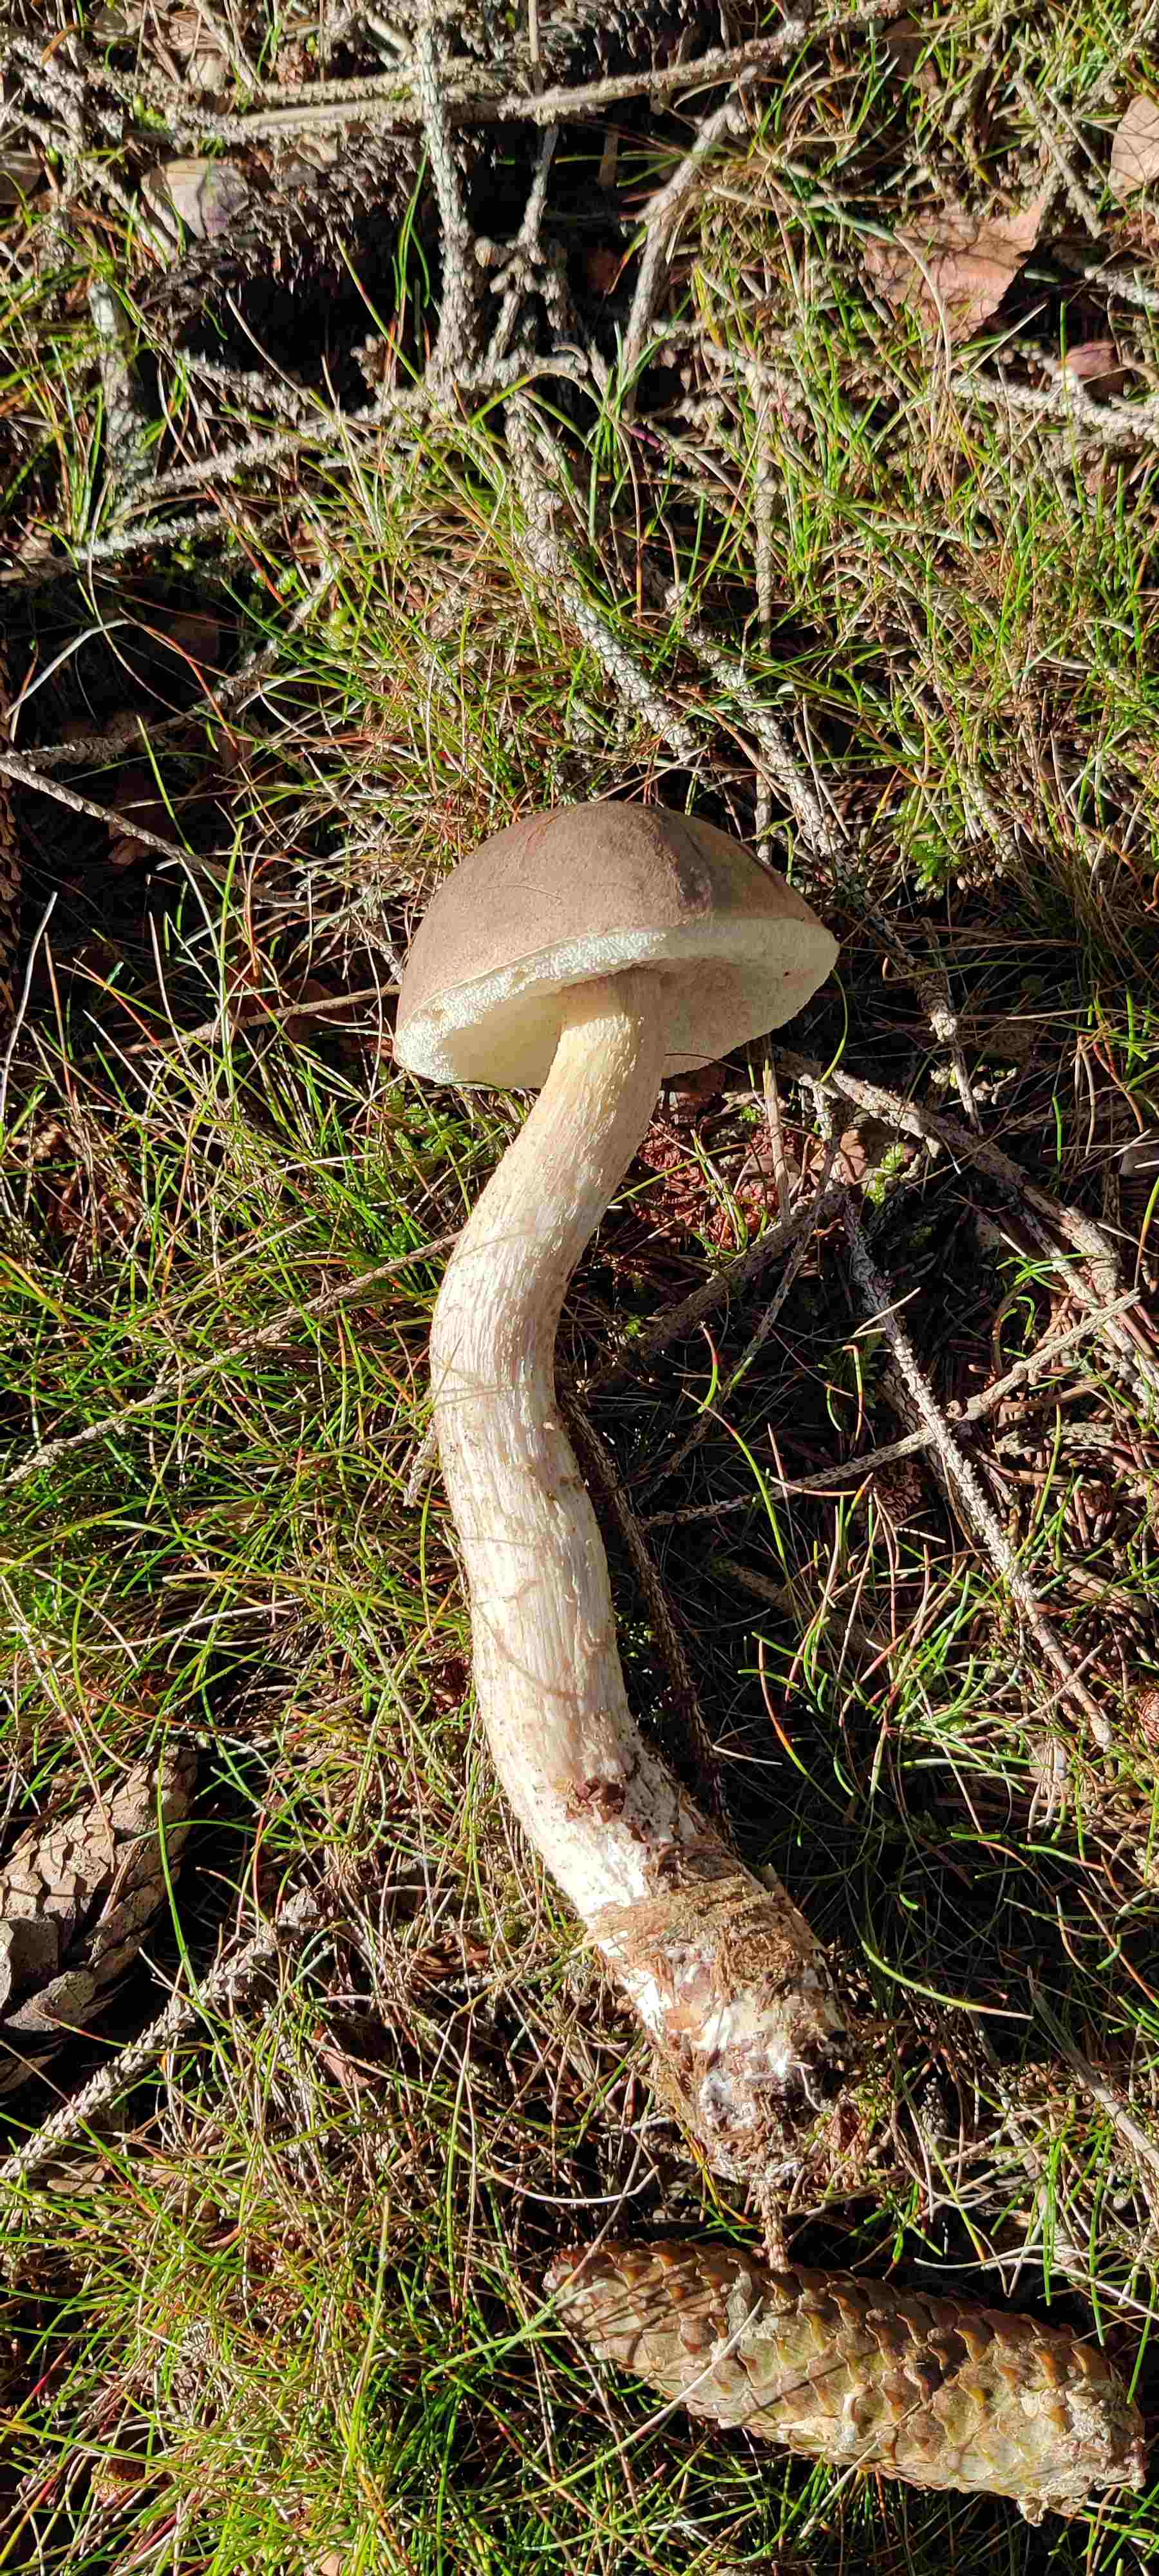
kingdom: Fungi
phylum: Basidiomycota
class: Agaricomycetes
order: Boletales
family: Boletaceae
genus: Leccinum
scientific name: Leccinum
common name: skælrørhat
